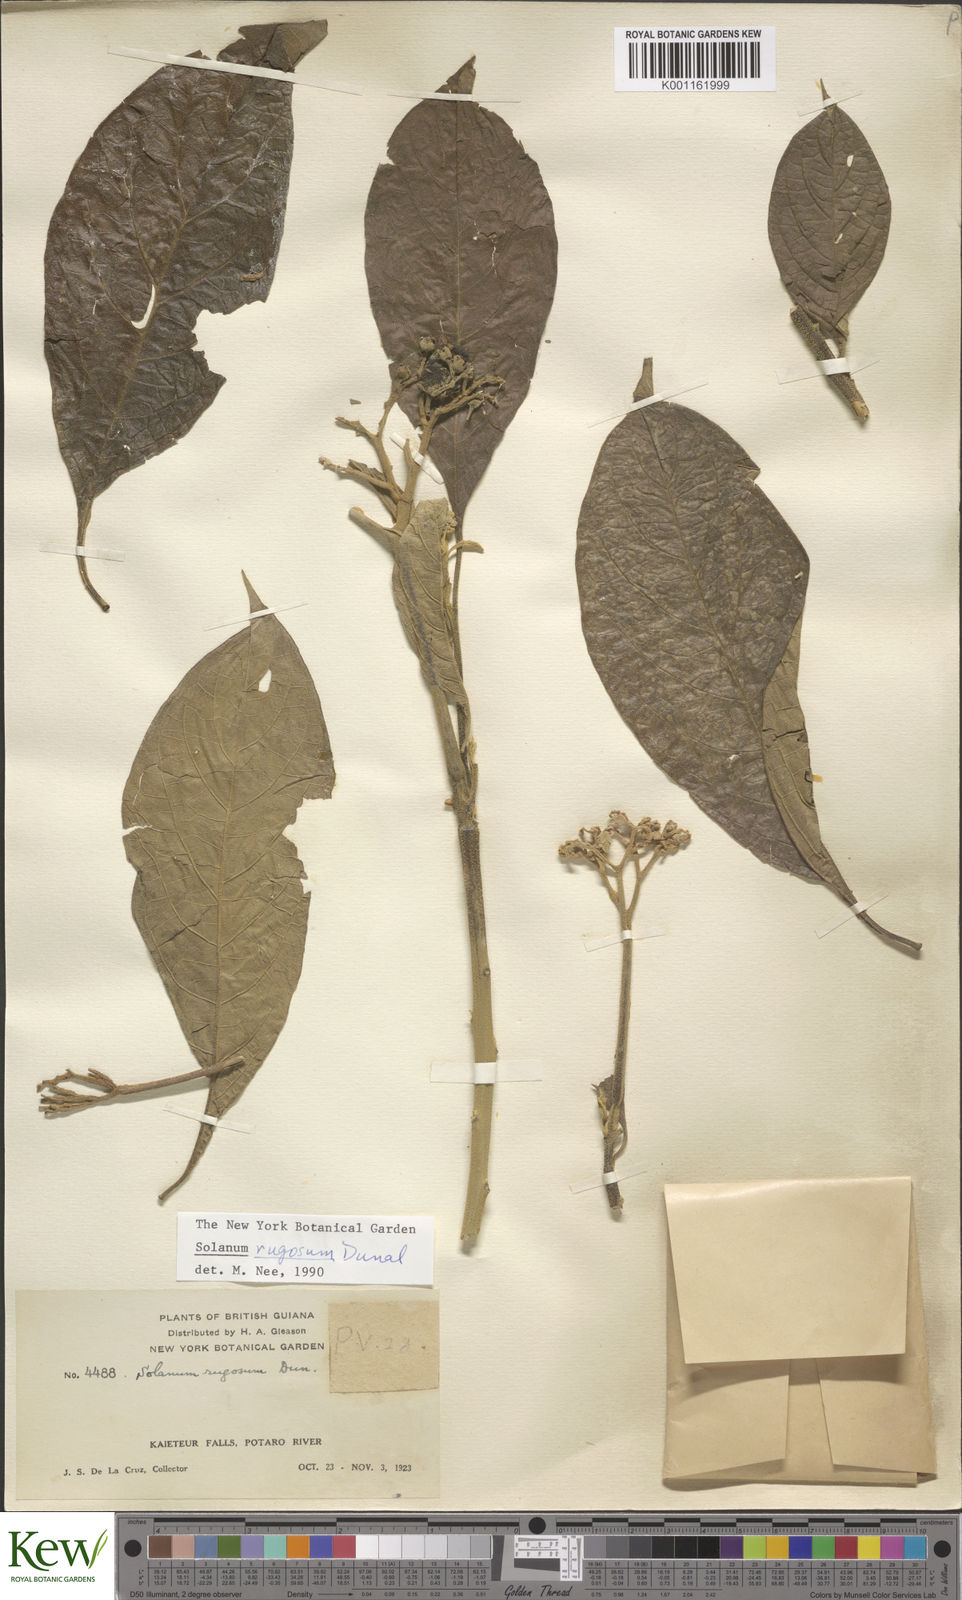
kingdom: Plantae
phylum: Tracheophyta
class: Magnoliopsida
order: Solanales
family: Solanaceae
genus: Solanum
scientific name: Solanum rugosum
